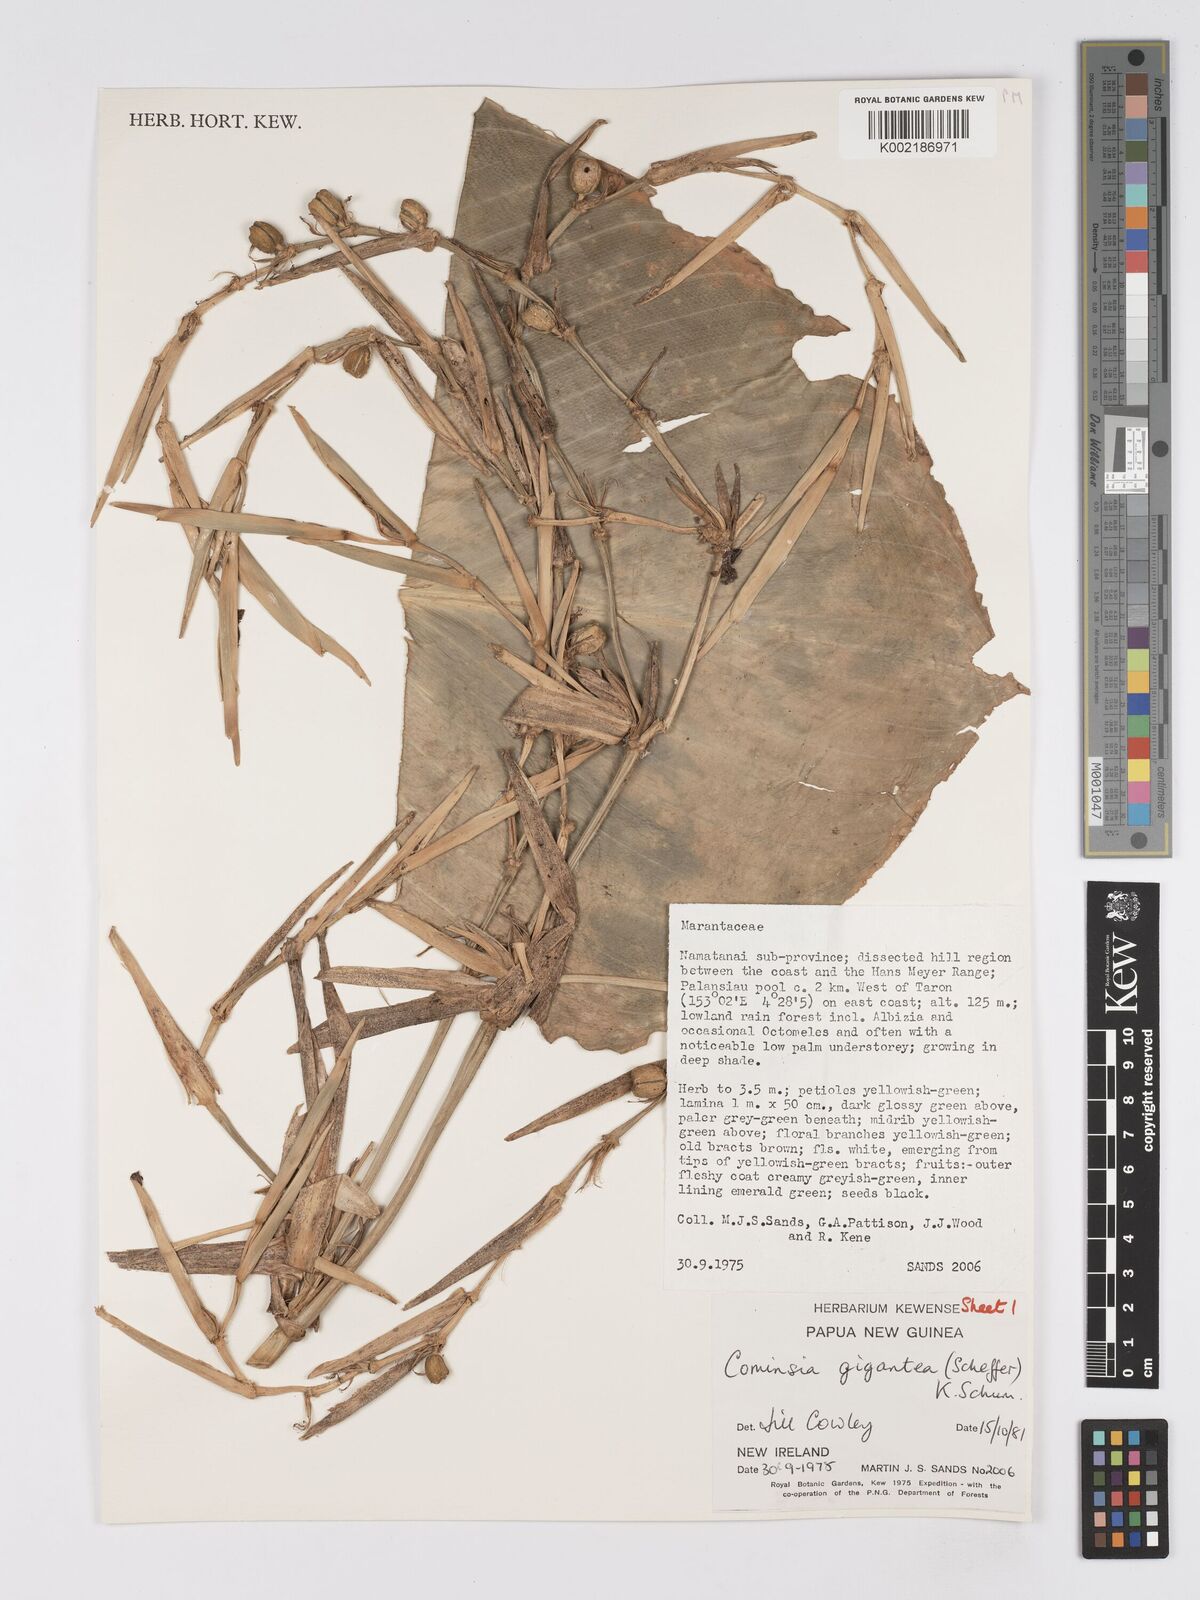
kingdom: Plantae
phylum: Tracheophyta
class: Liliopsida
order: Zingiberales
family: Marantaceae
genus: Phrynium
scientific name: Phrynium giganteum
